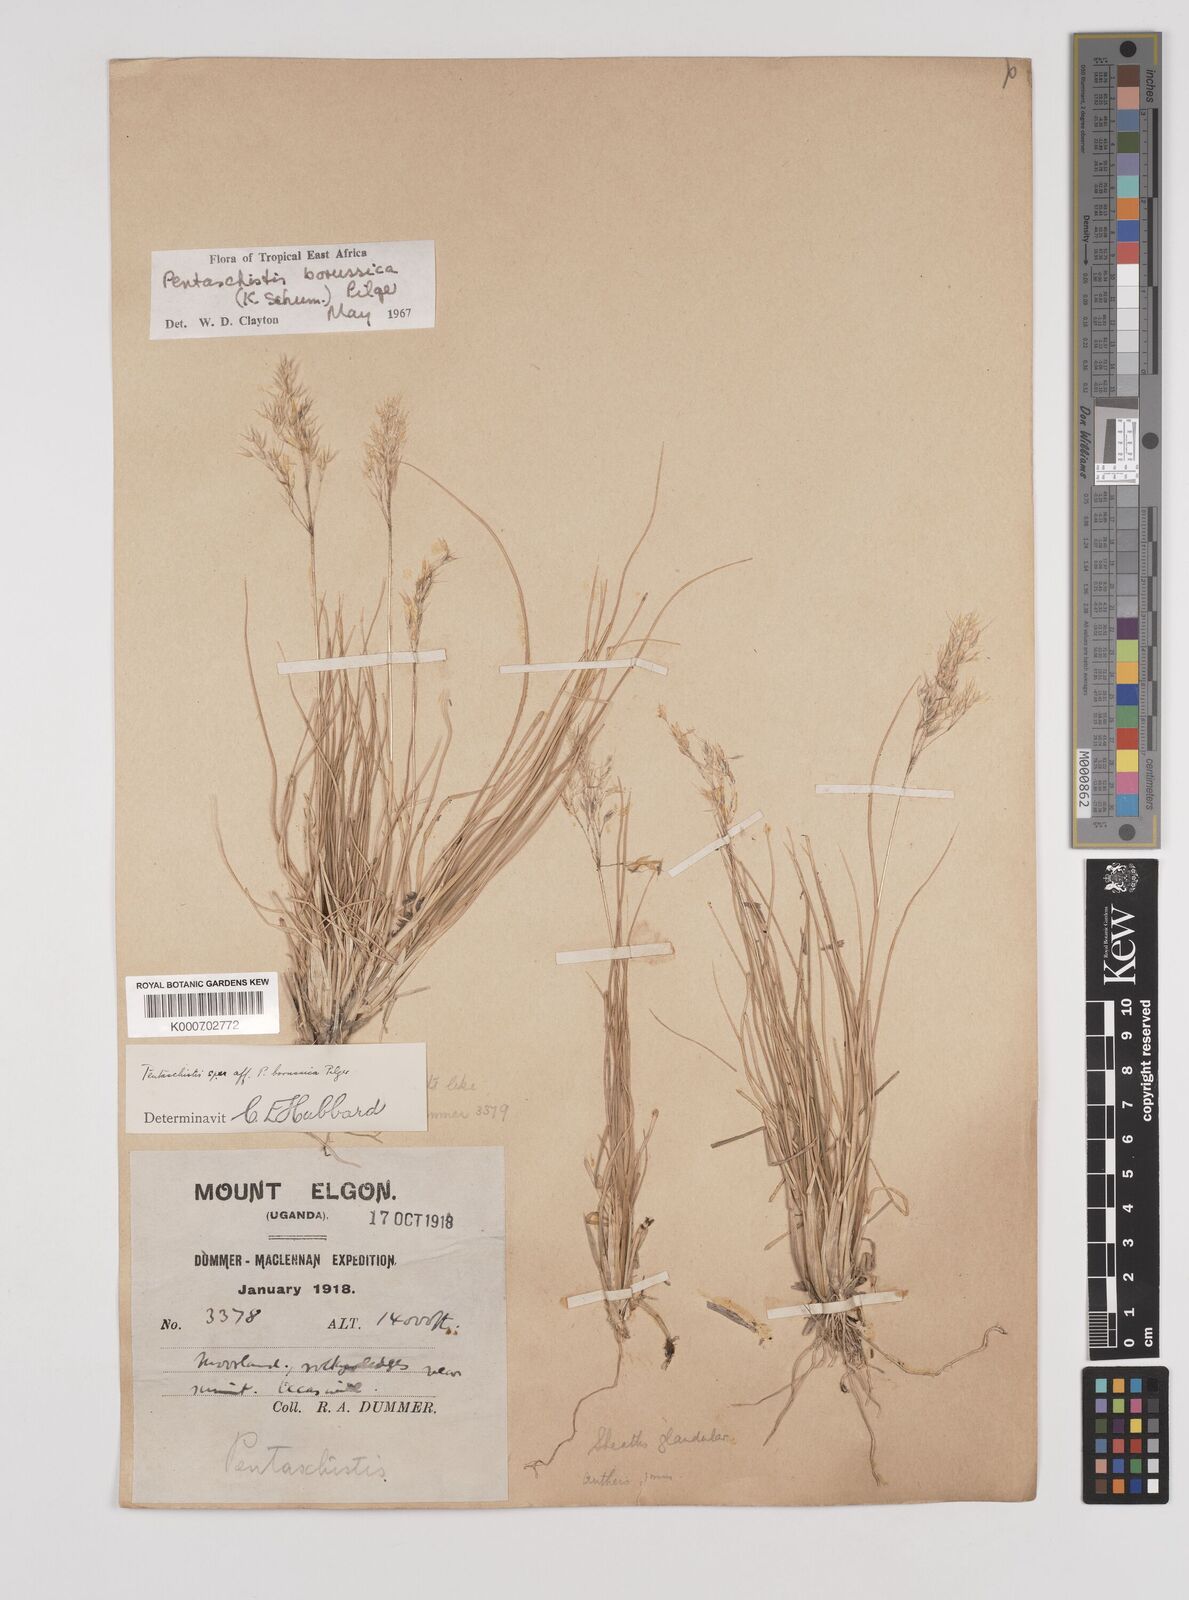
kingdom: Plantae
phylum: Tracheophyta
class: Liliopsida
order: Poales
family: Poaceae
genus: Pentameris
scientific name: Pentameris borussica
